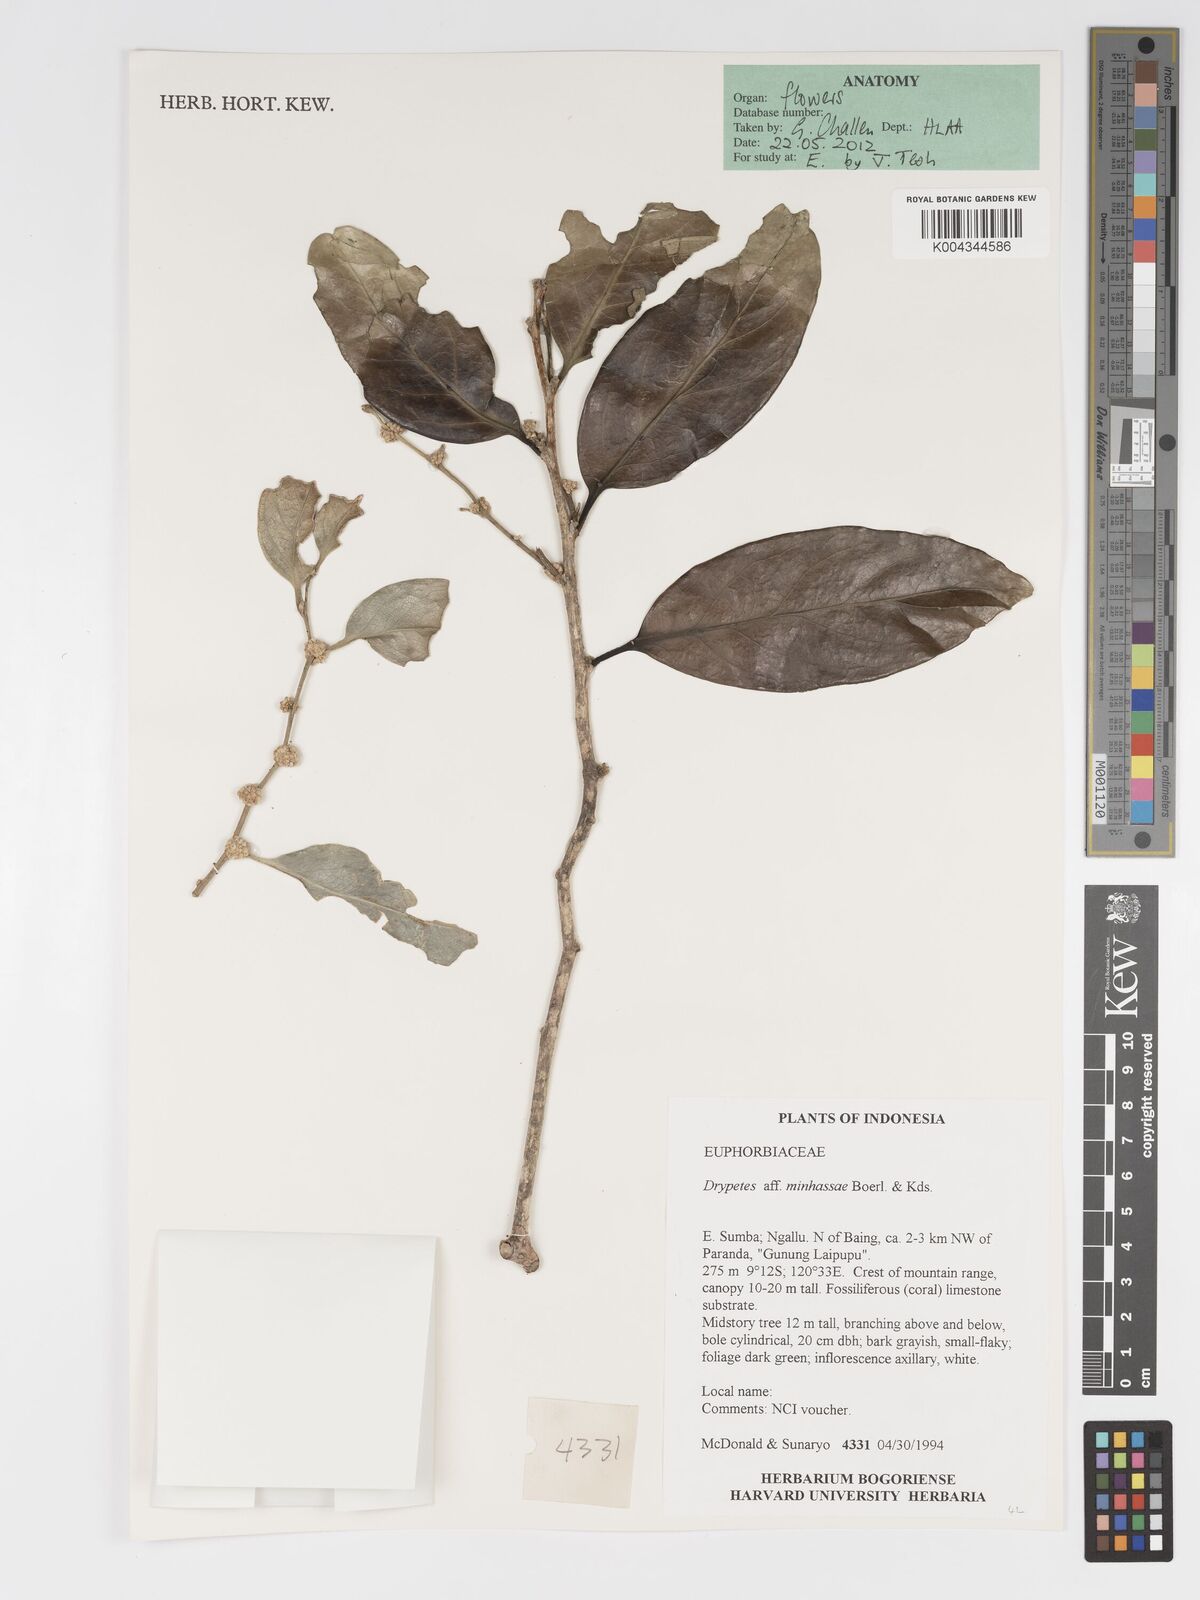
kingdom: Plantae
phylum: Tracheophyta
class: Magnoliopsida
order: Malpighiales
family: Putranjivaceae
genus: Drypetes
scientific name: Drypetes minahassae
